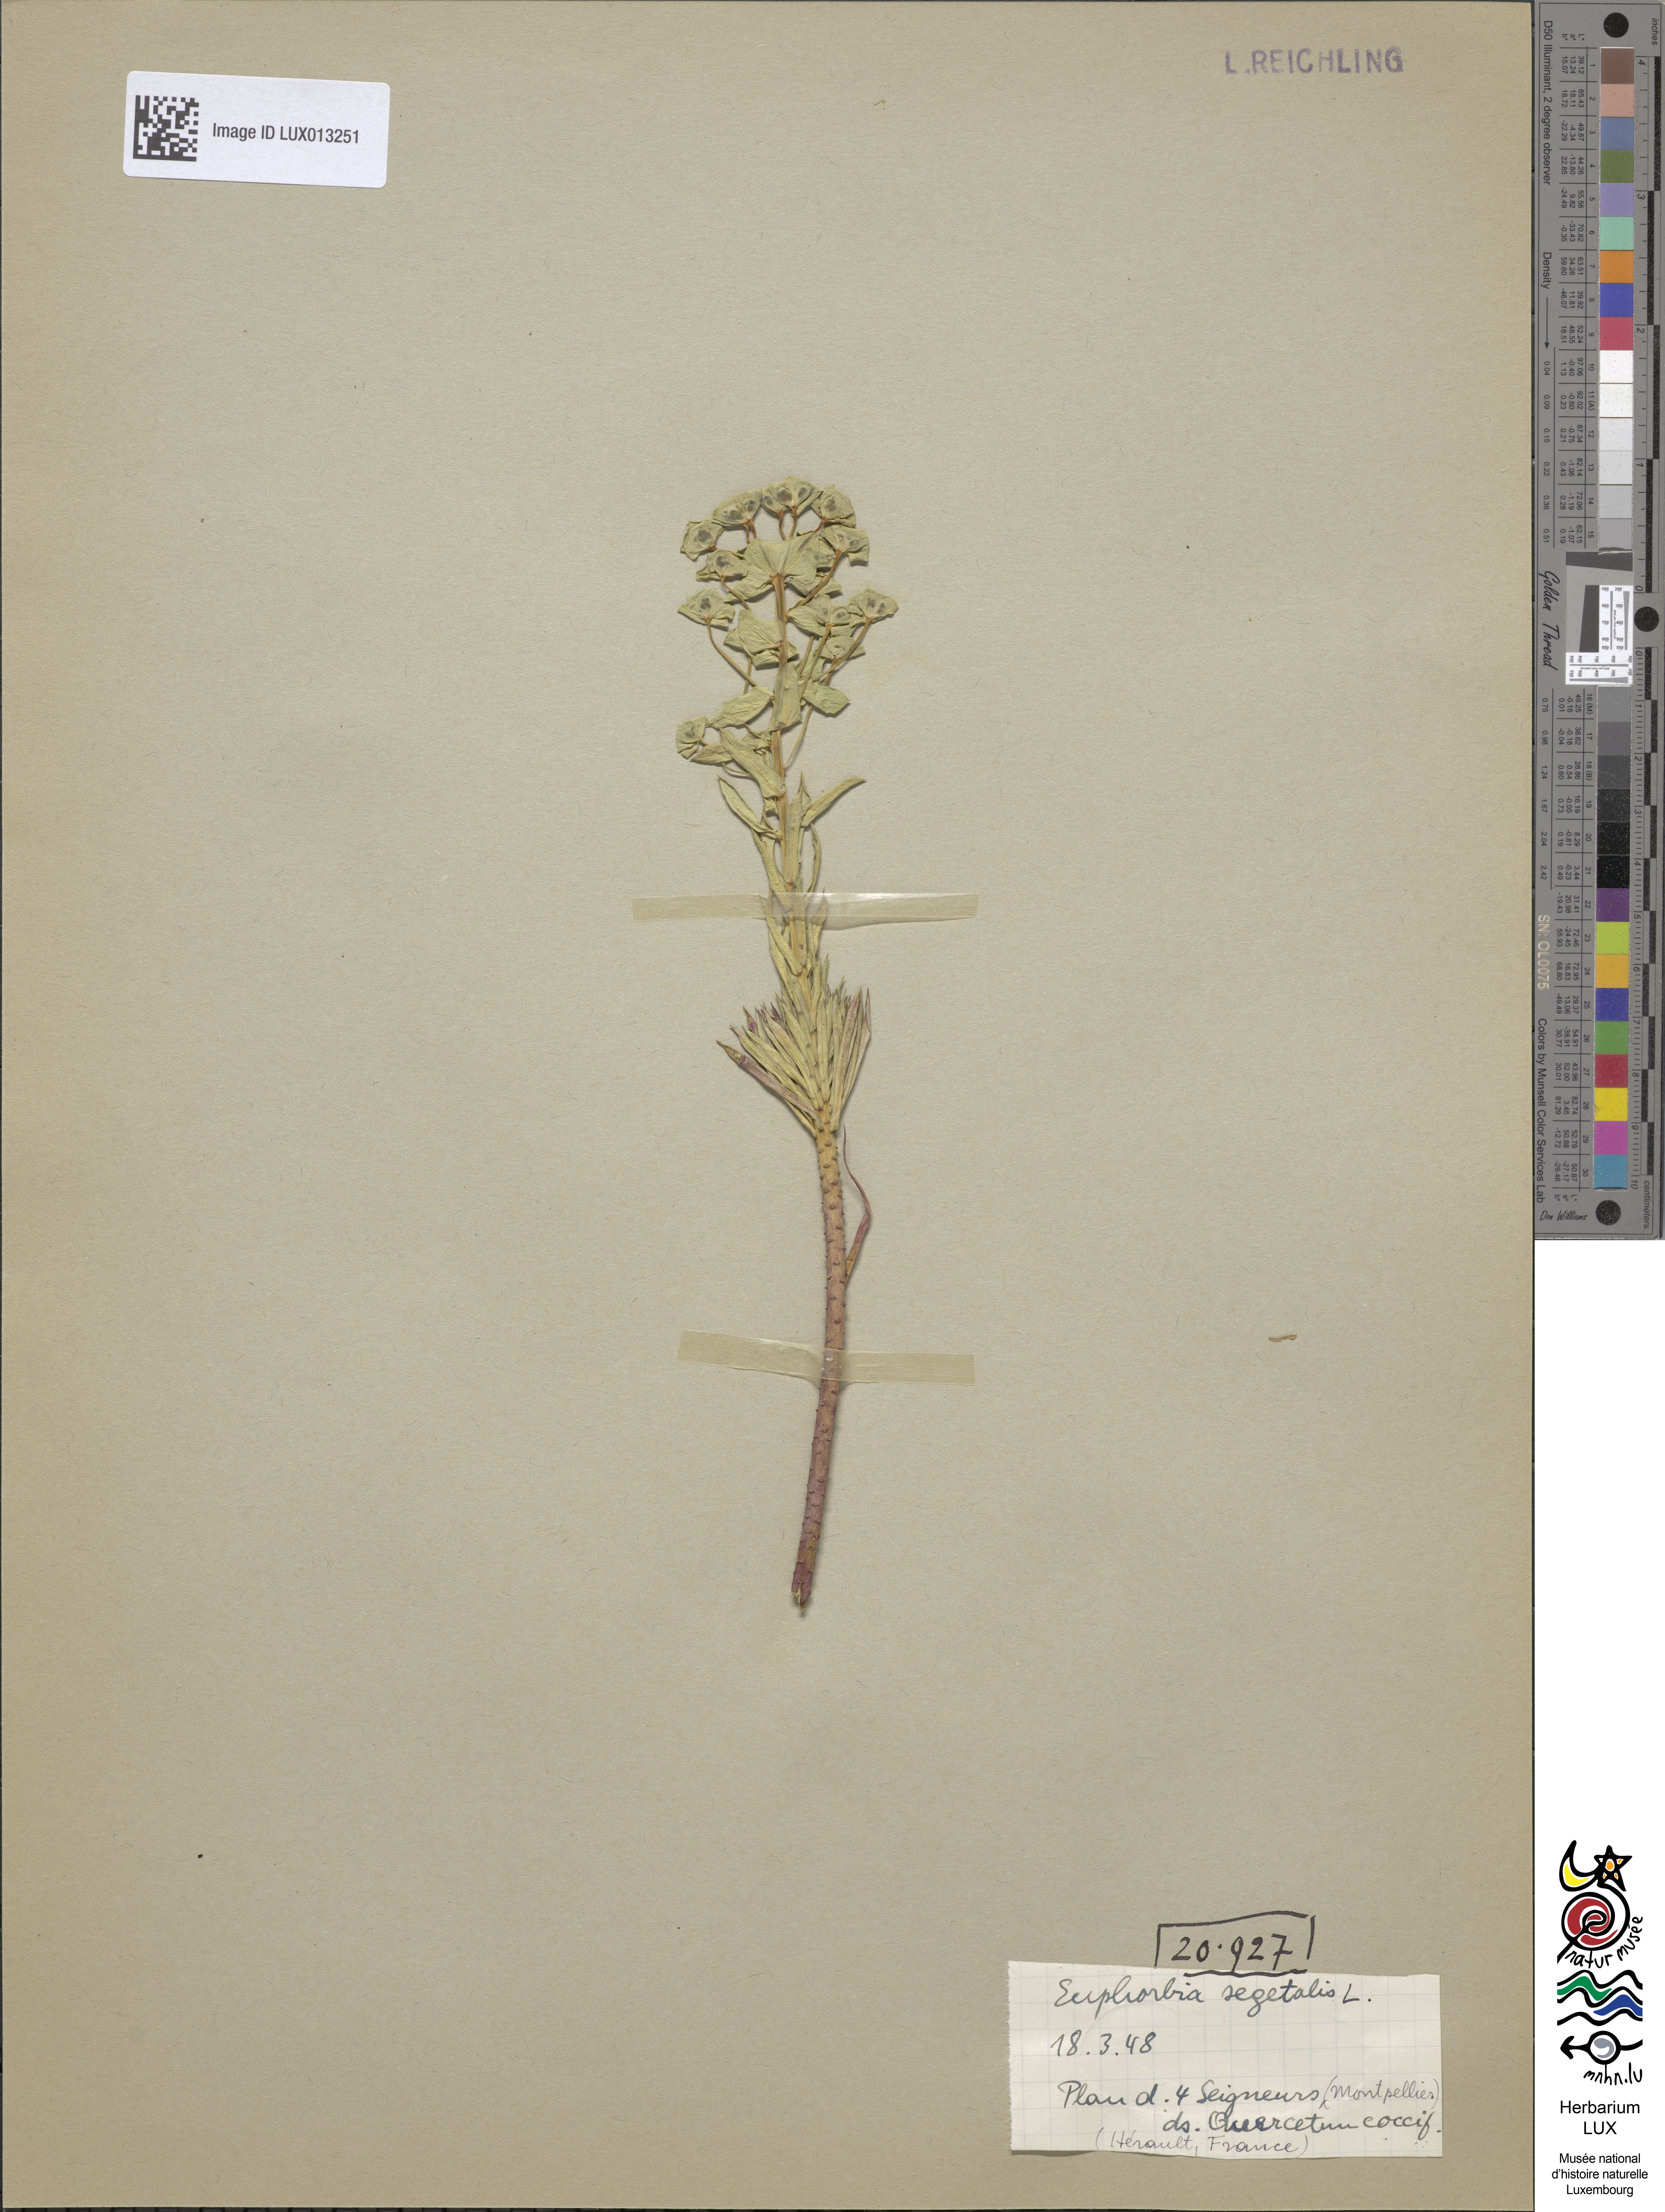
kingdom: Plantae
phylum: Tracheophyta
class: Magnoliopsida
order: Malpighiales
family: Euphorbiaceae
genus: Euphorbia
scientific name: Euphorbia segetalis
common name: Corn spurge
